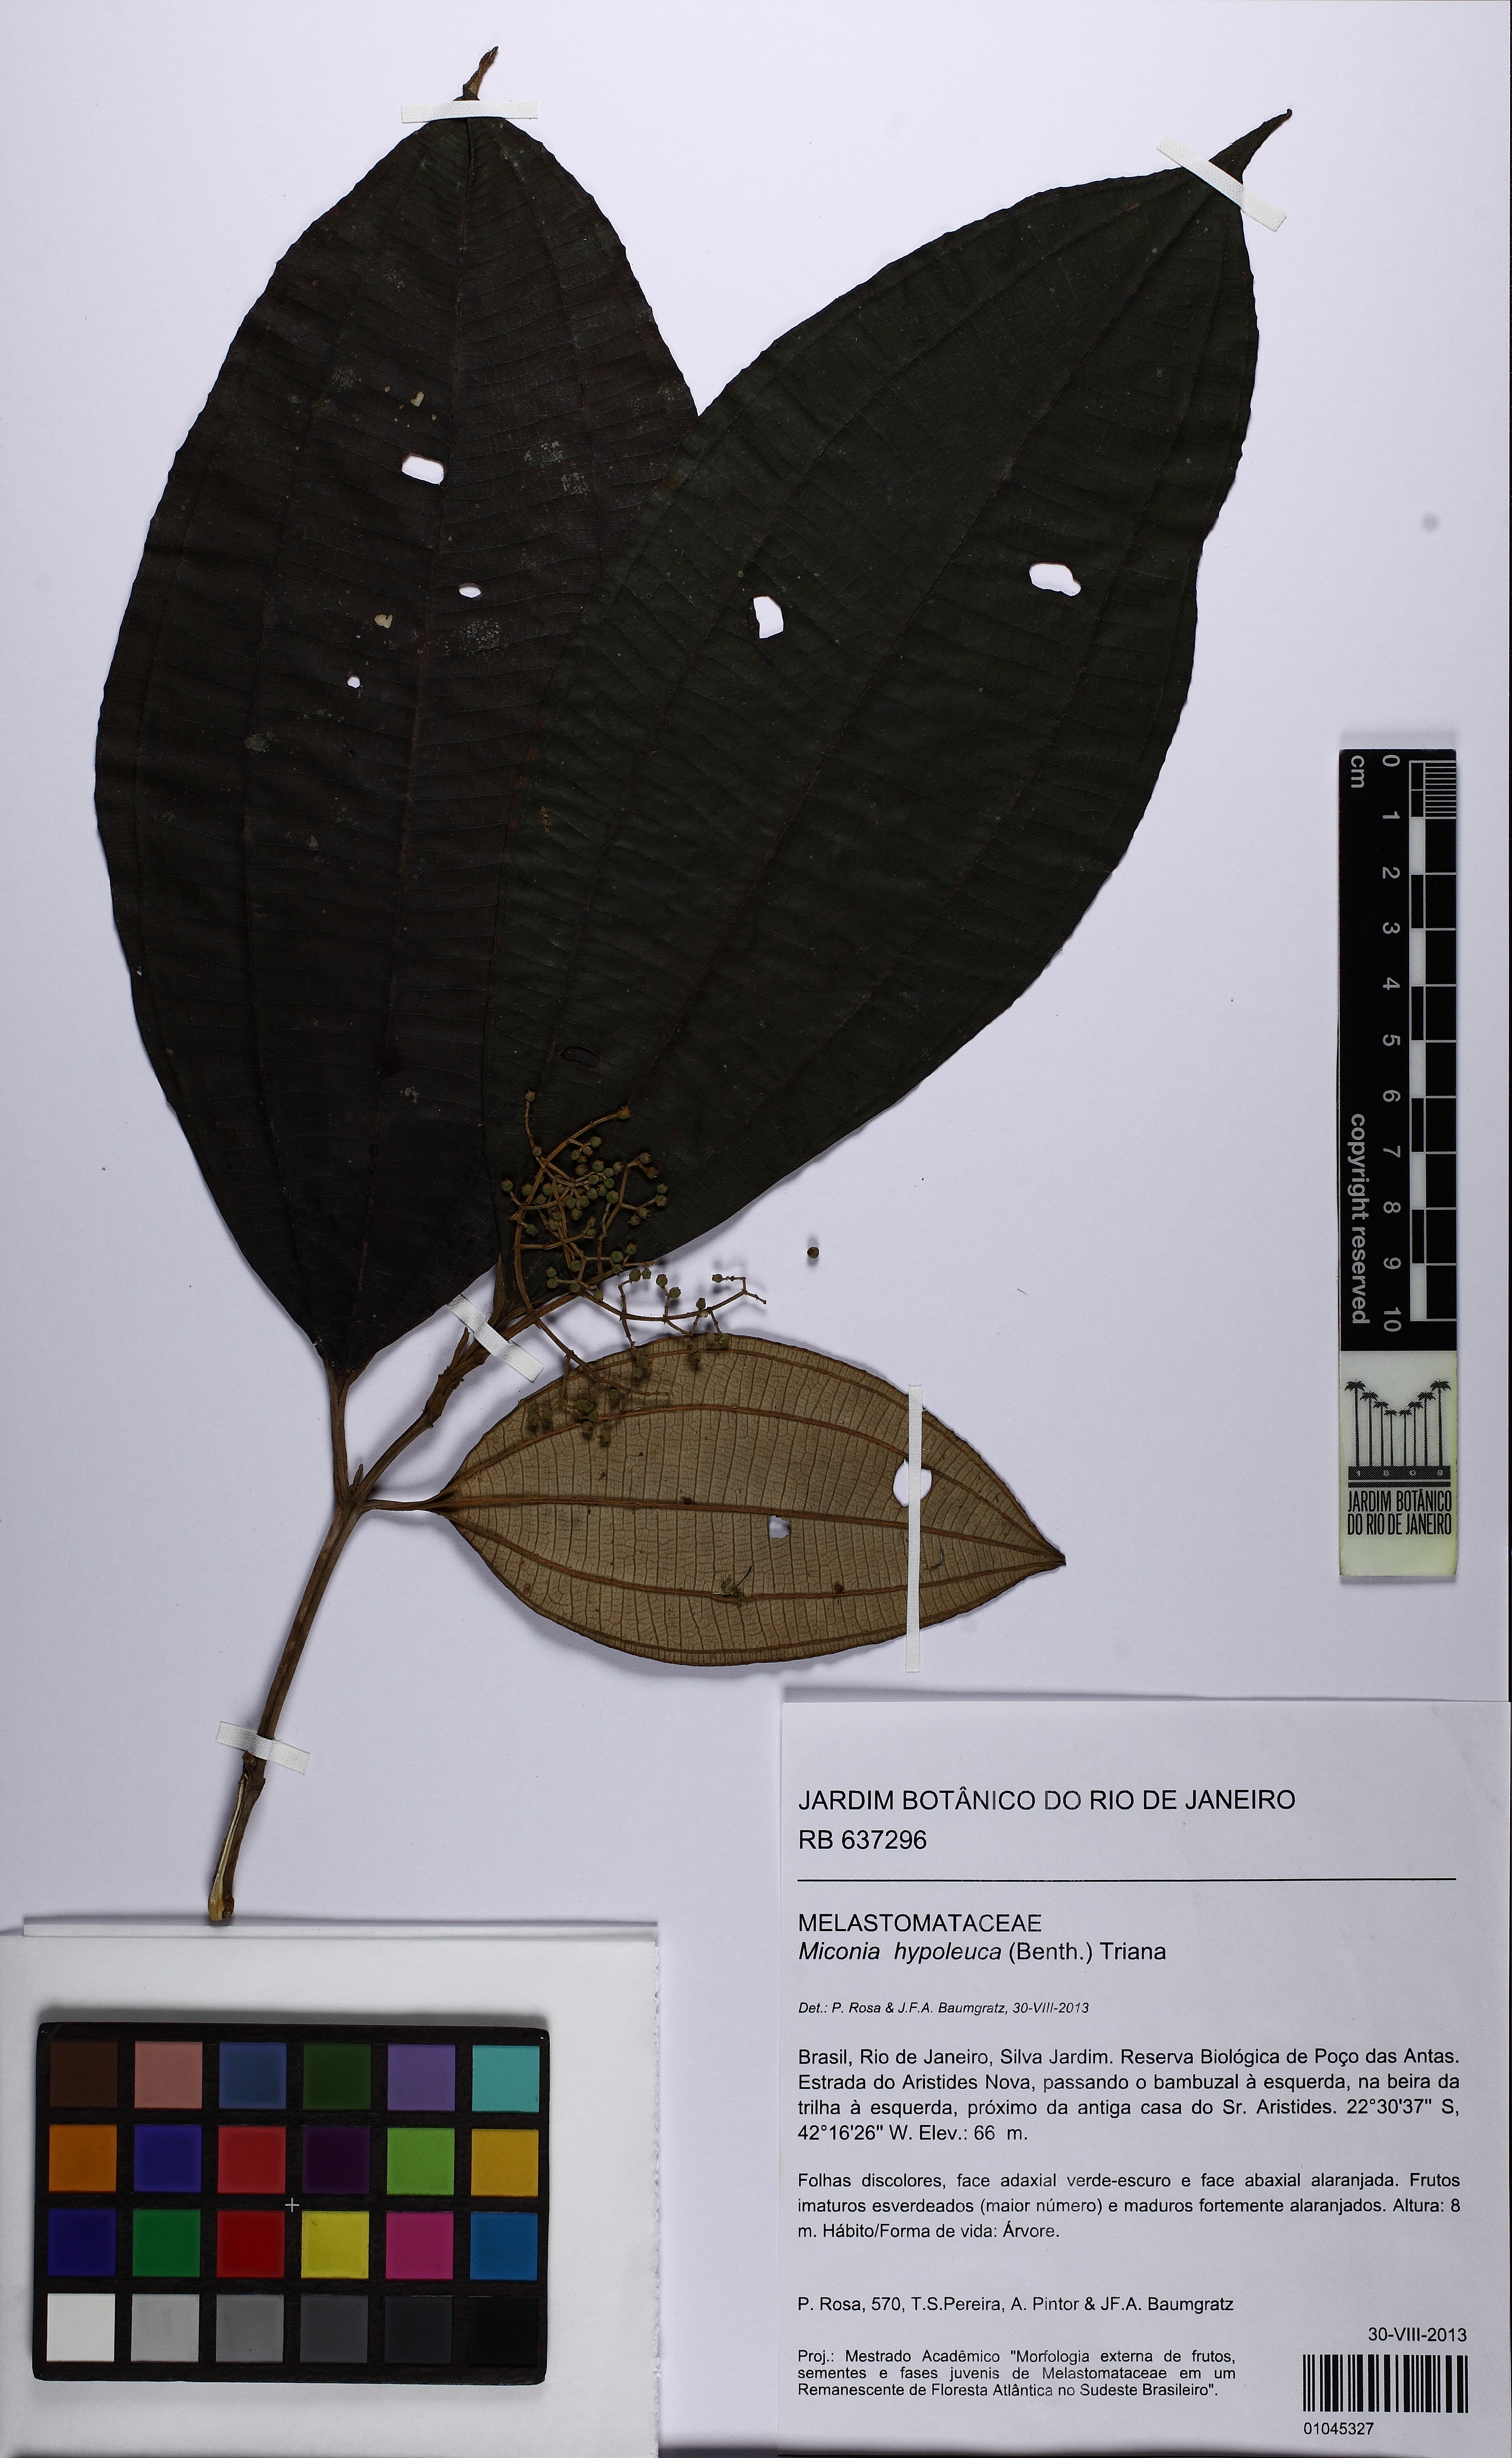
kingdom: Plantae
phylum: Tracheophyta
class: Magnoliopsida
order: Myrtales
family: Melastomataceae
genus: Miconia
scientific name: Miconia hypoleuca
